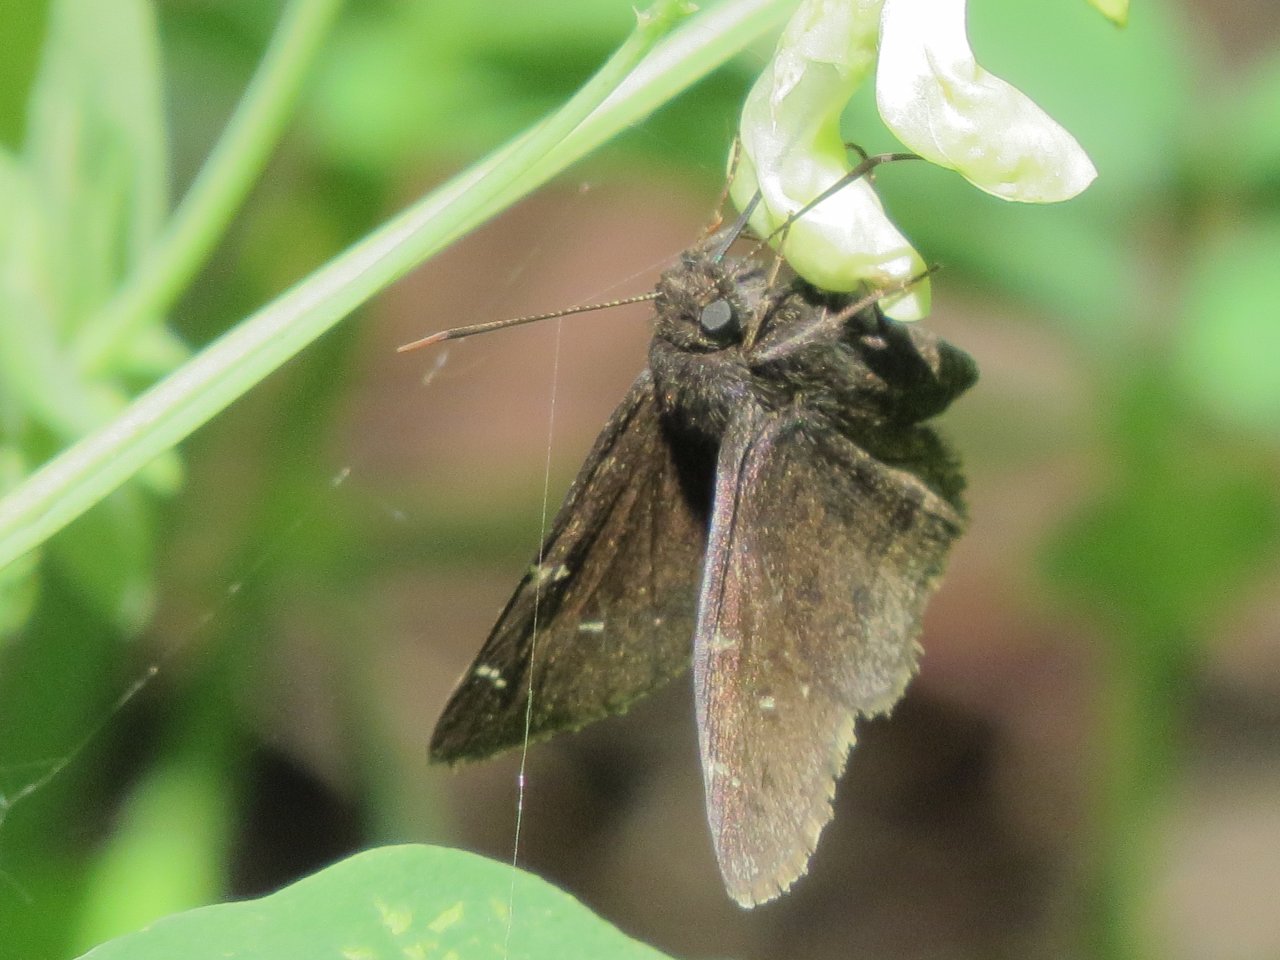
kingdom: Animalia
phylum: Arthropoda
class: Insecta
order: Lepidoptera
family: Hesperiidae
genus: Autochton
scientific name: Autochton
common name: Northern Cloudywing
